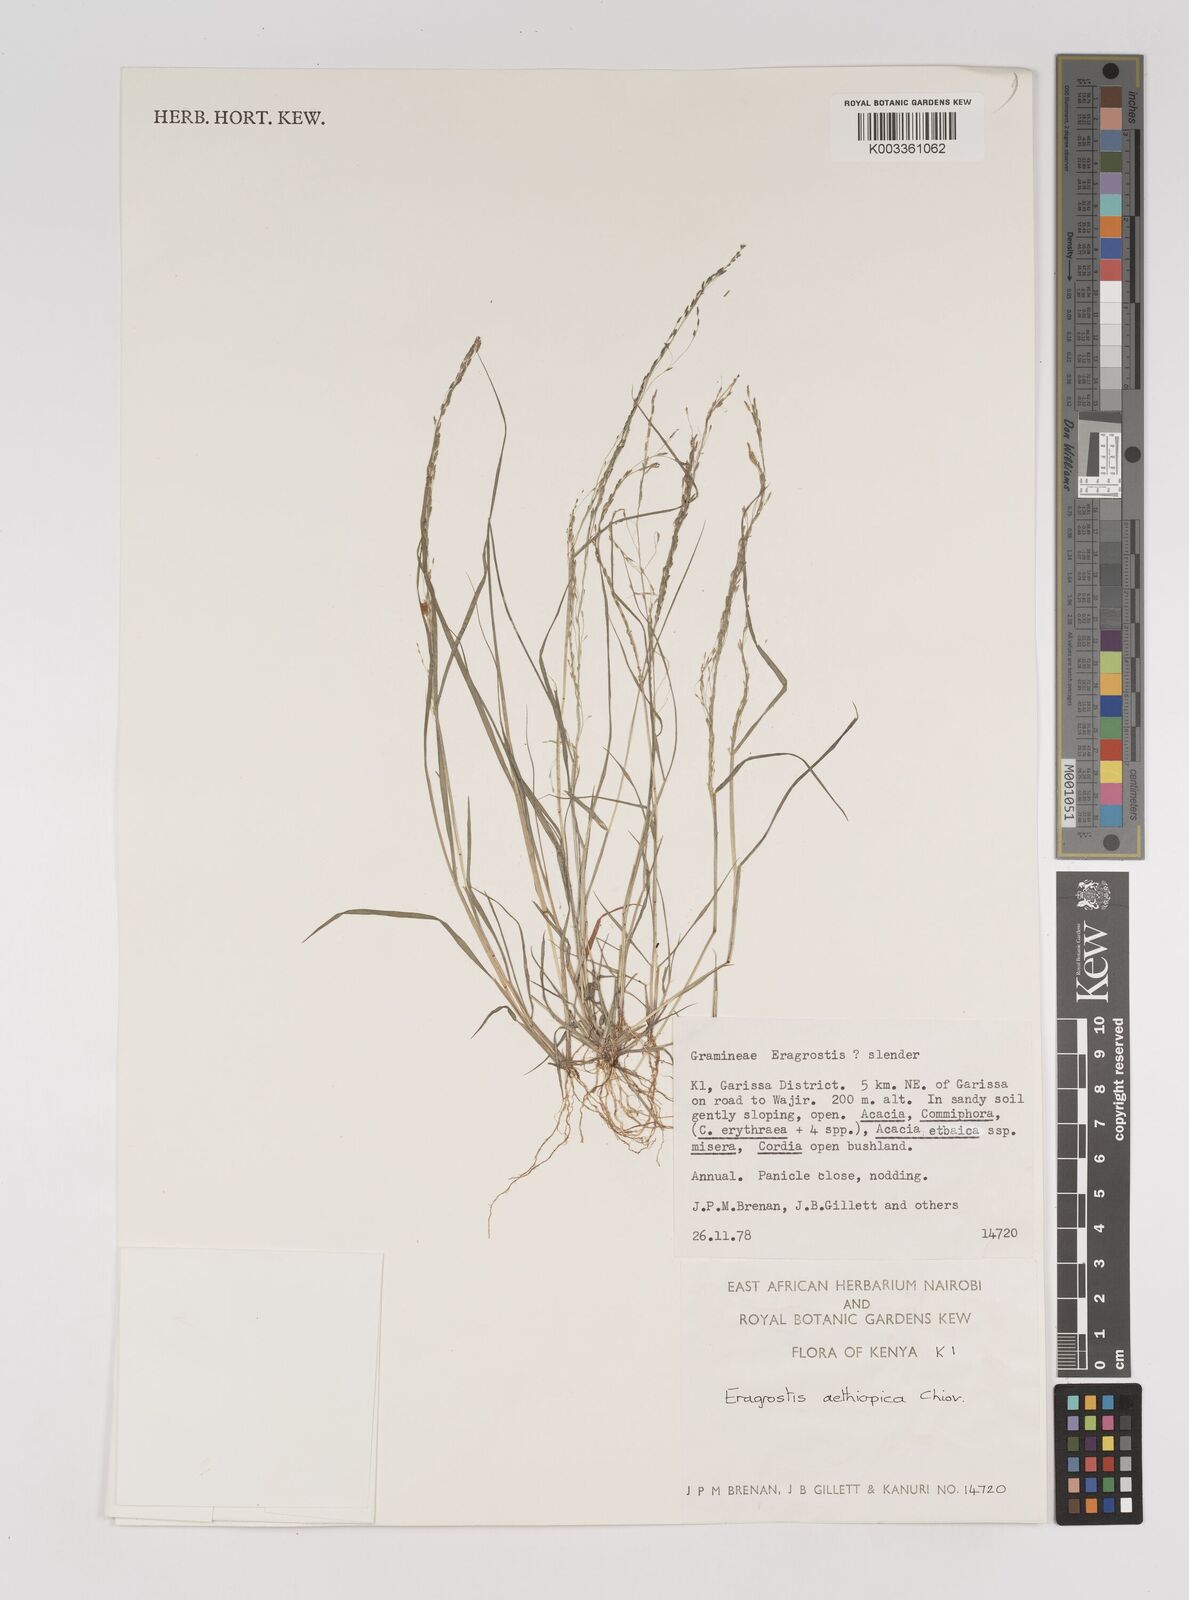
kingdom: Plantae
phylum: Tracheophyta
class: Liliopsida
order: Poales
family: Poaceae
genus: Eragrostis
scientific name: Eragrostis aethiopica
